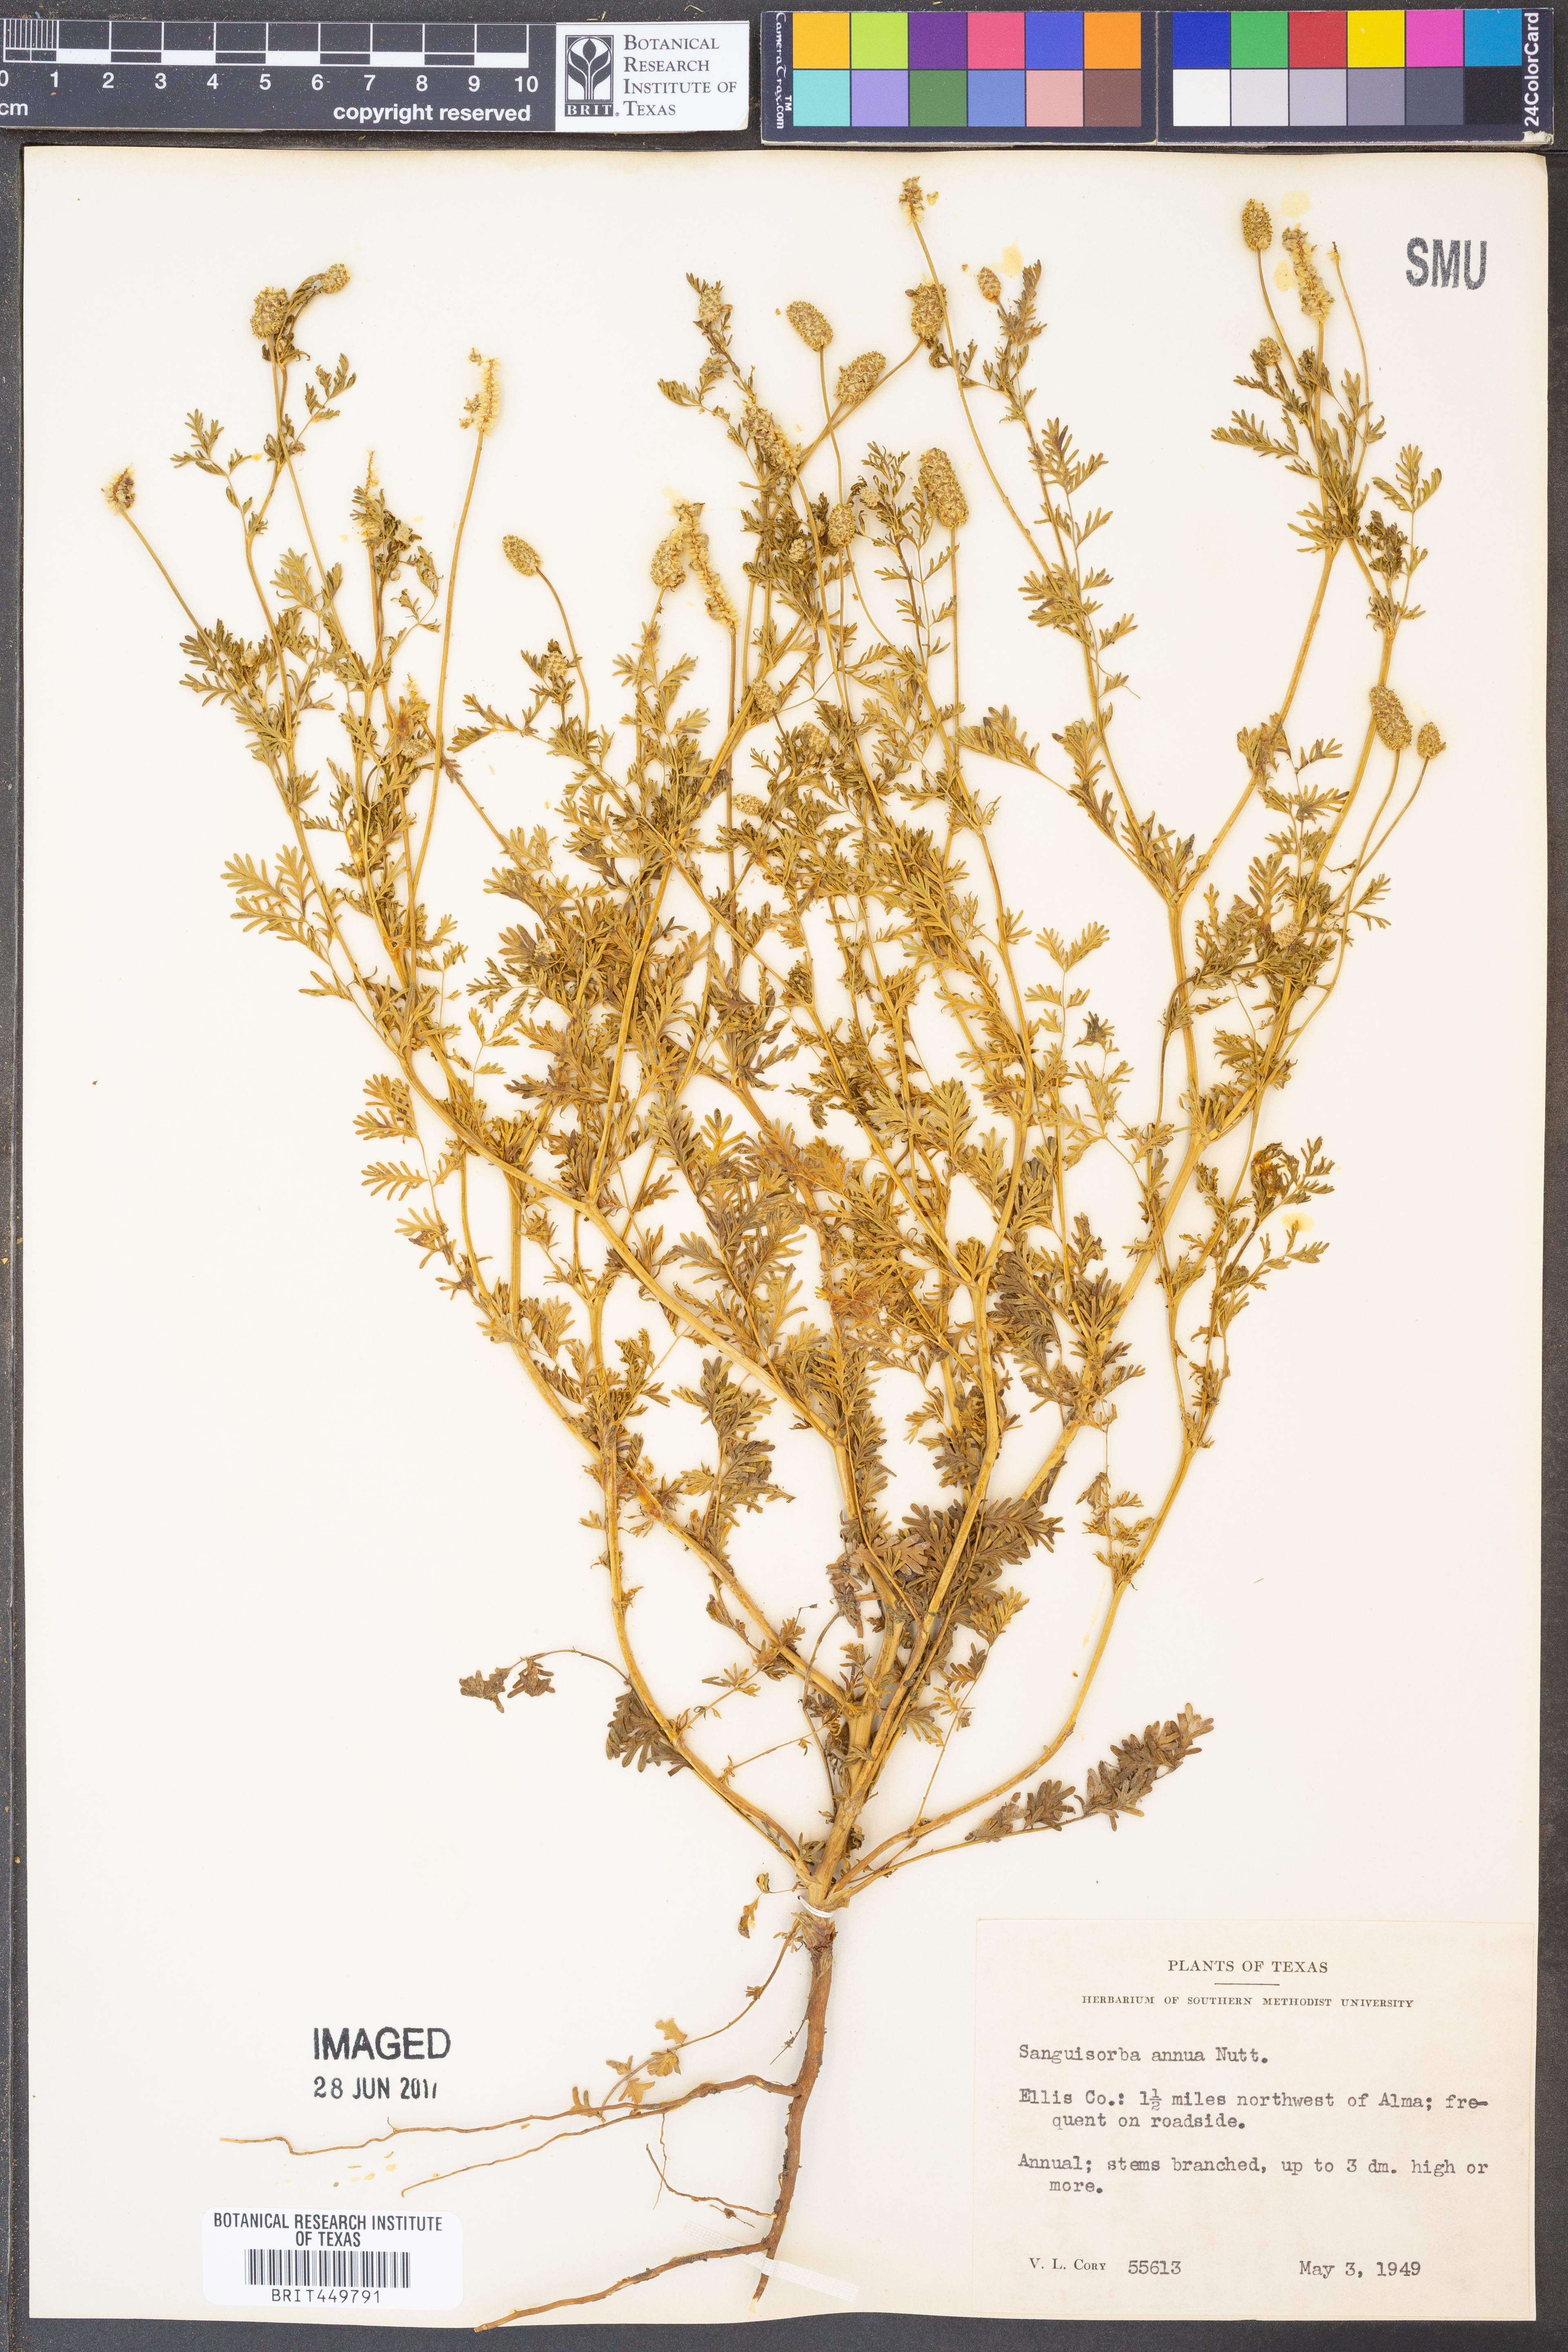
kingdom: Plantae
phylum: Tracheophyta
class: Magnoliopsida
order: Rosales
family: Rosaceae
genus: Poteridium
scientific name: Poteridium annuum
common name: Annual burnet
